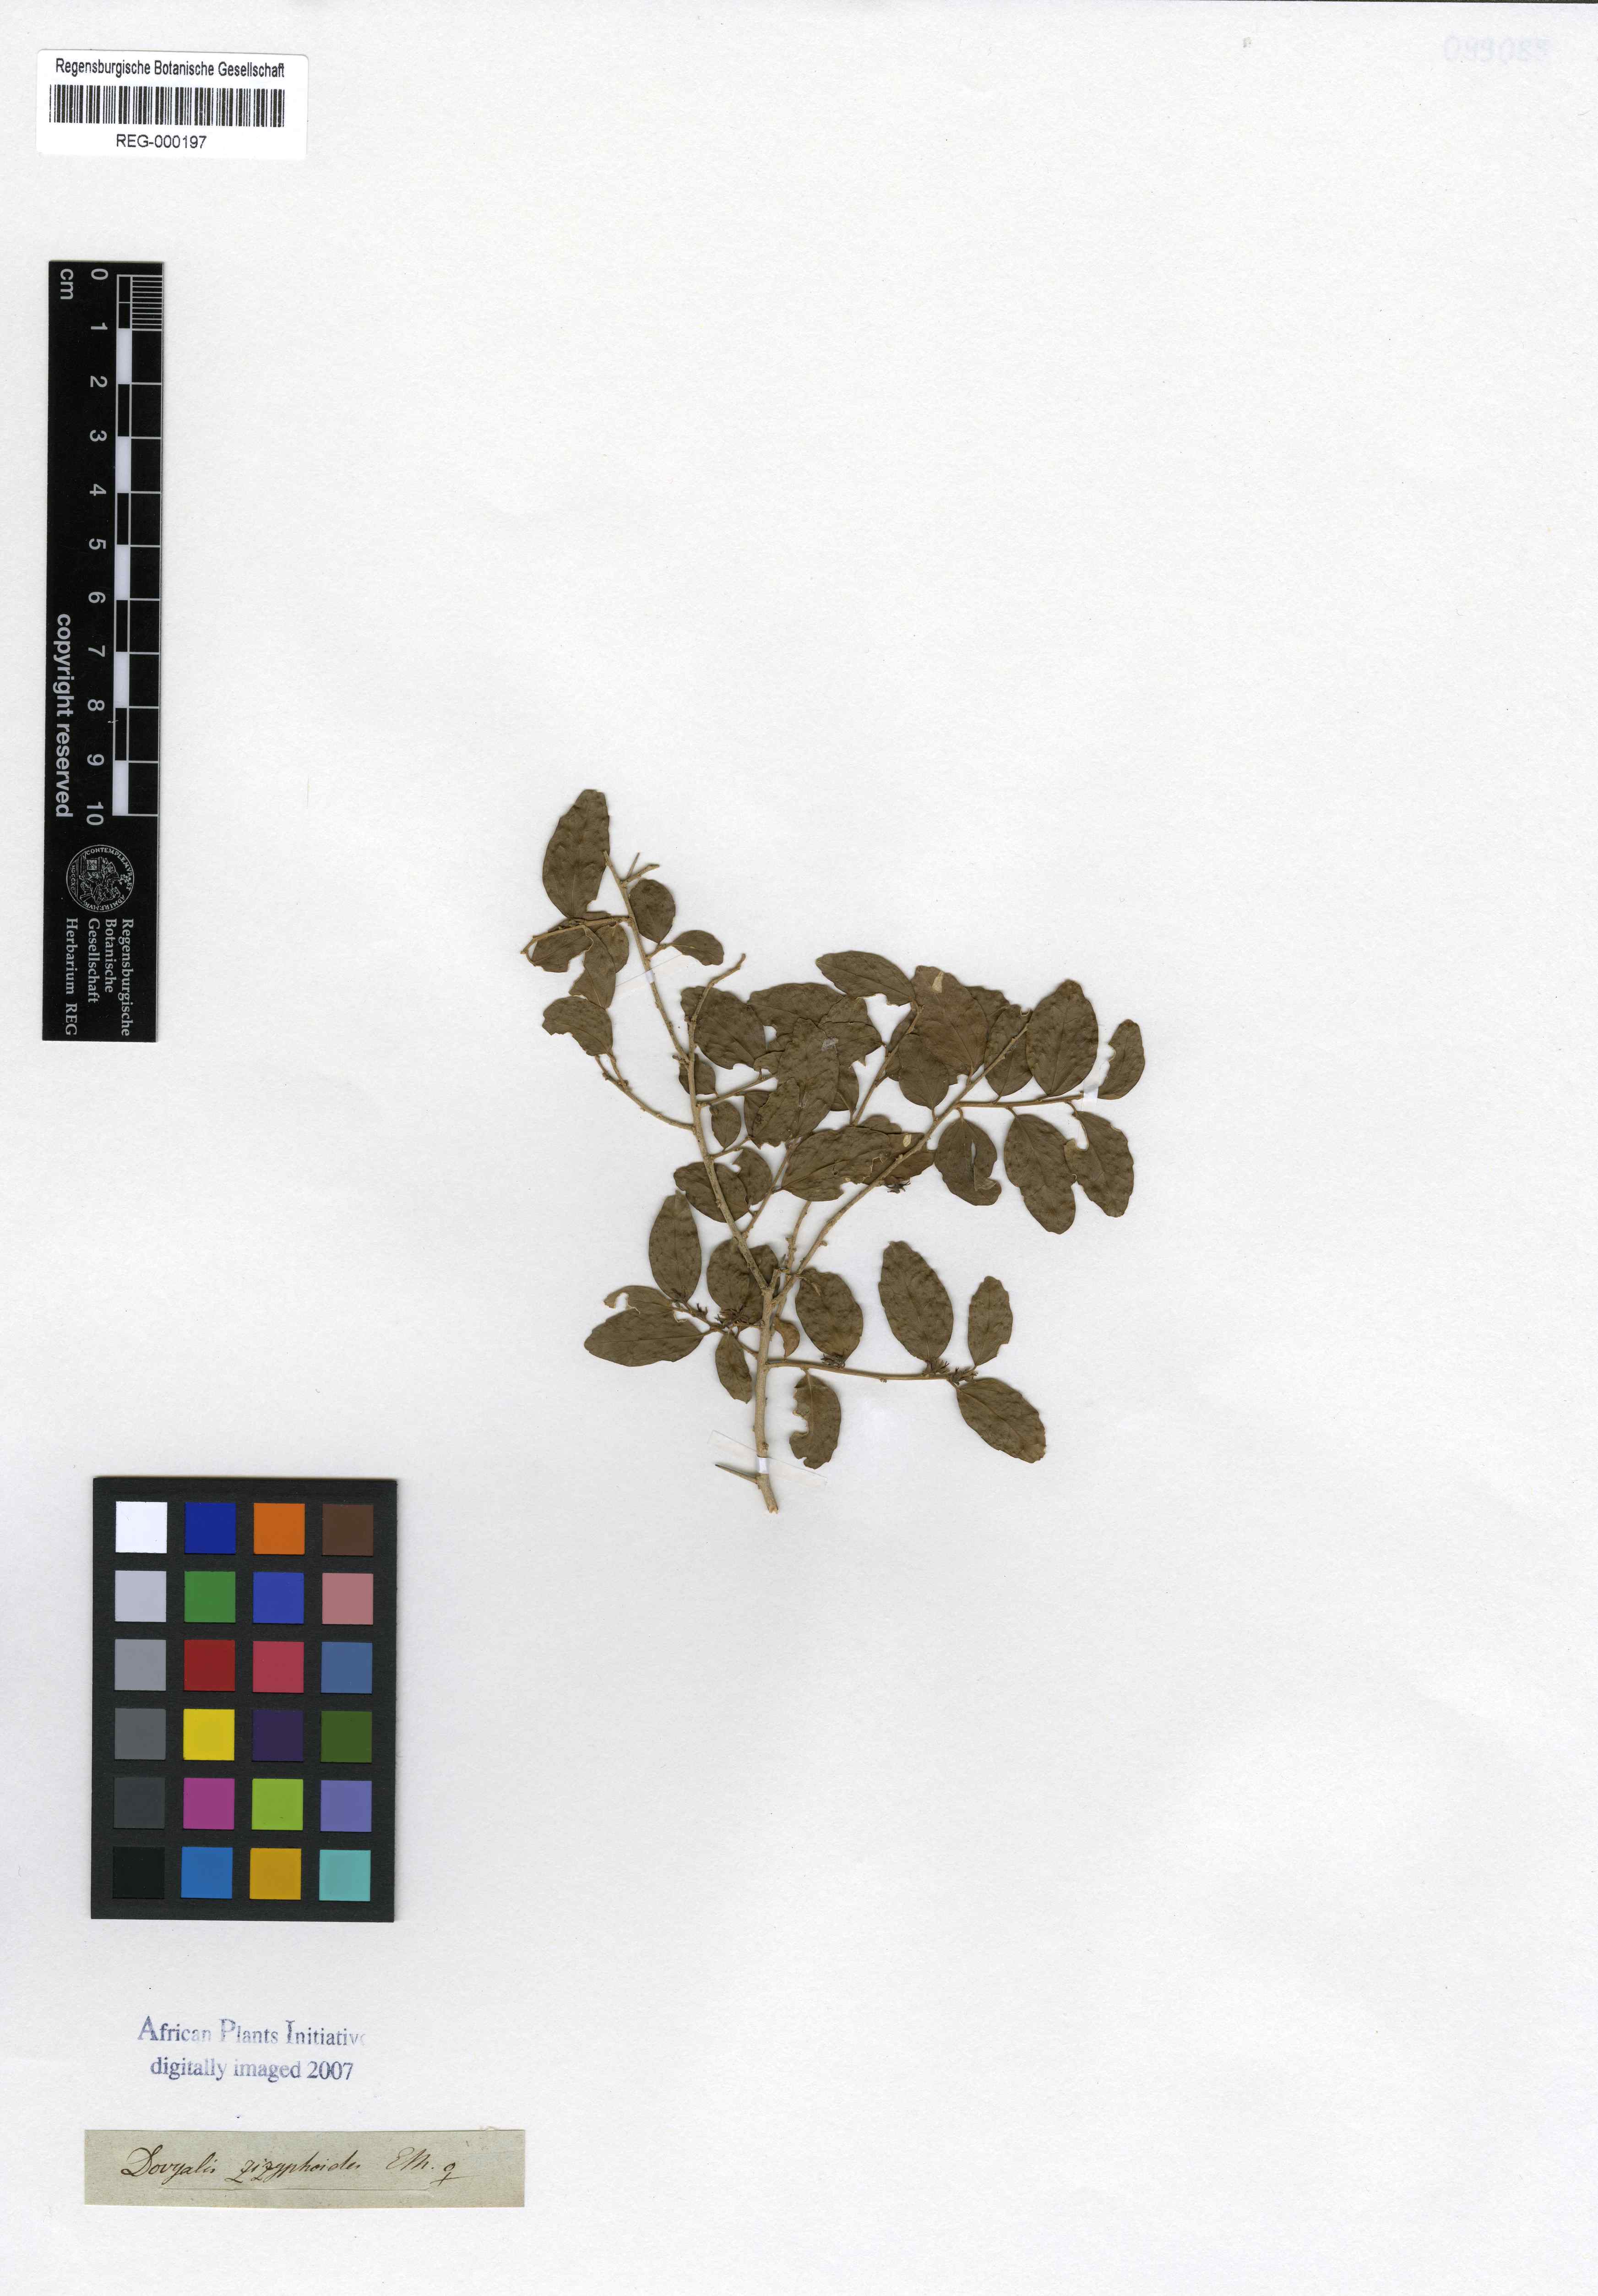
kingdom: Plantae
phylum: Tracheophyta
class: Magnoliopsida
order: Malpighiales
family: Salicaceae
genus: Dovyalis
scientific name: Dovyalis rhamnoides
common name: Sourberry
